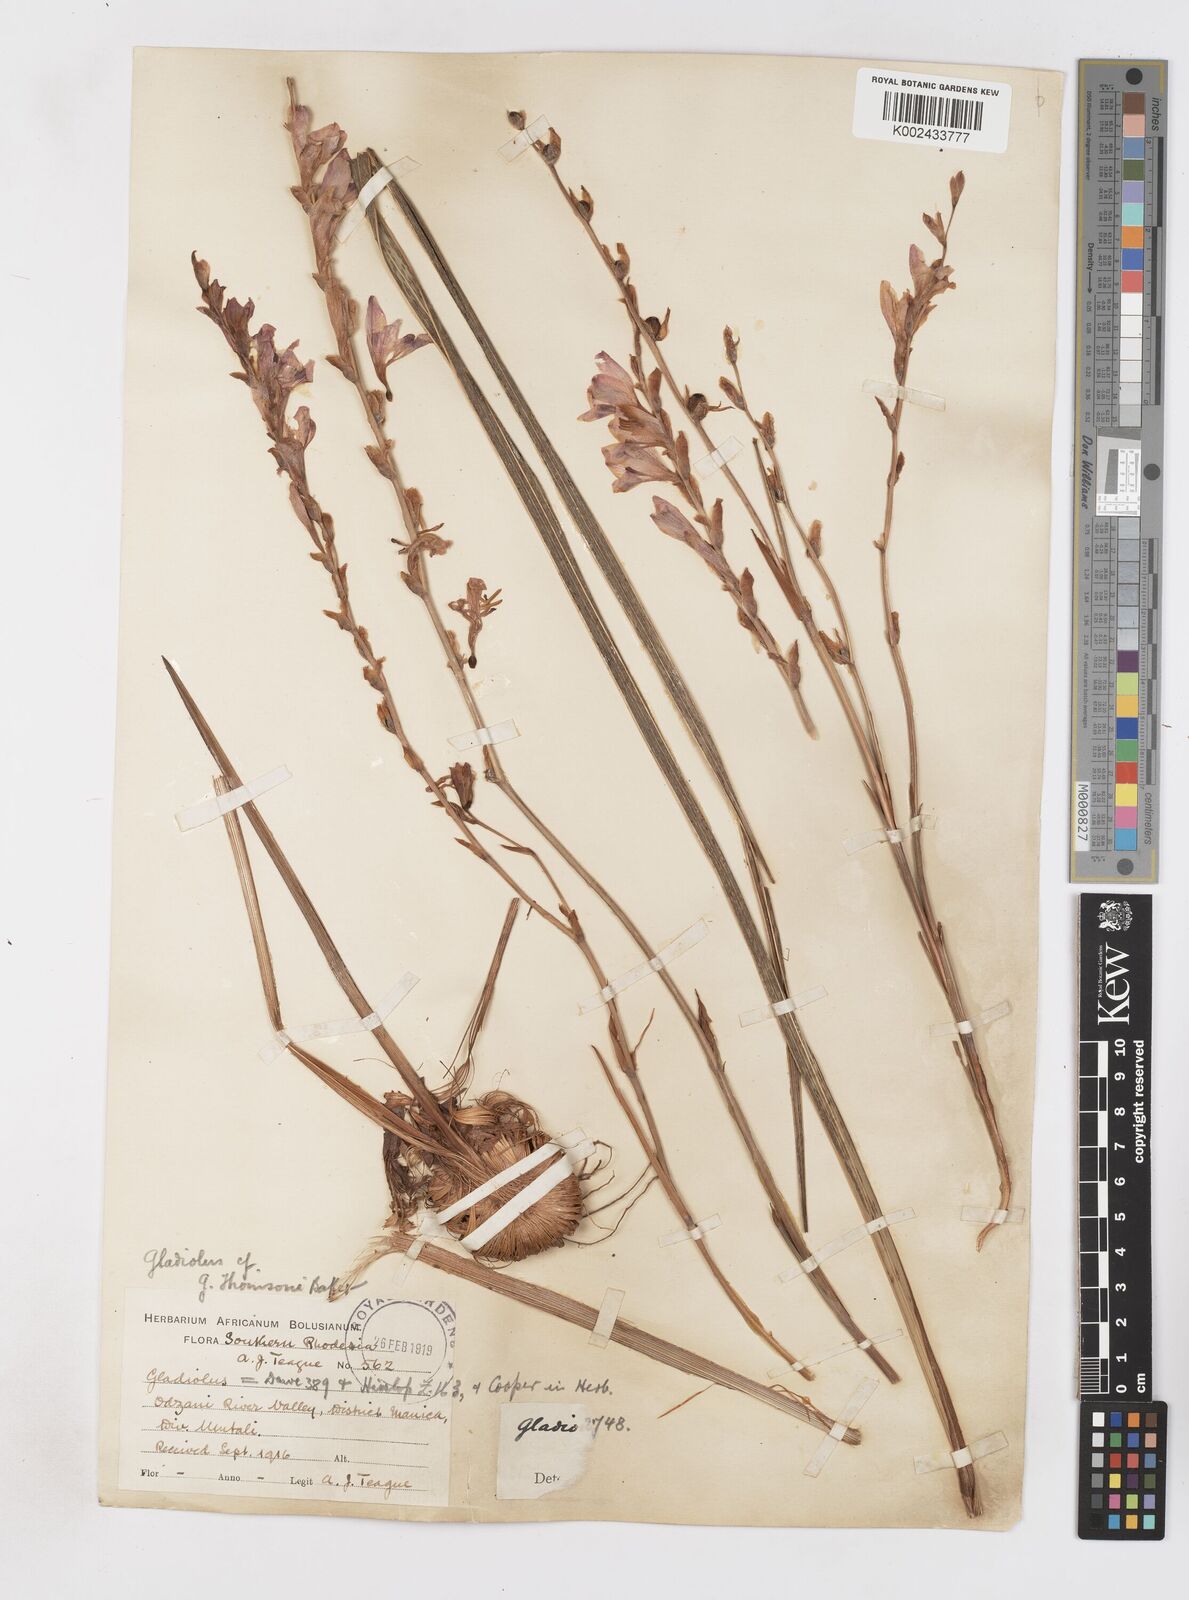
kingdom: Plantae
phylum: Tracheophyta
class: Liliopsida
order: Asparagales
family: Iridaceae
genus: Gladiolus
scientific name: Gladiolus crassifolius
